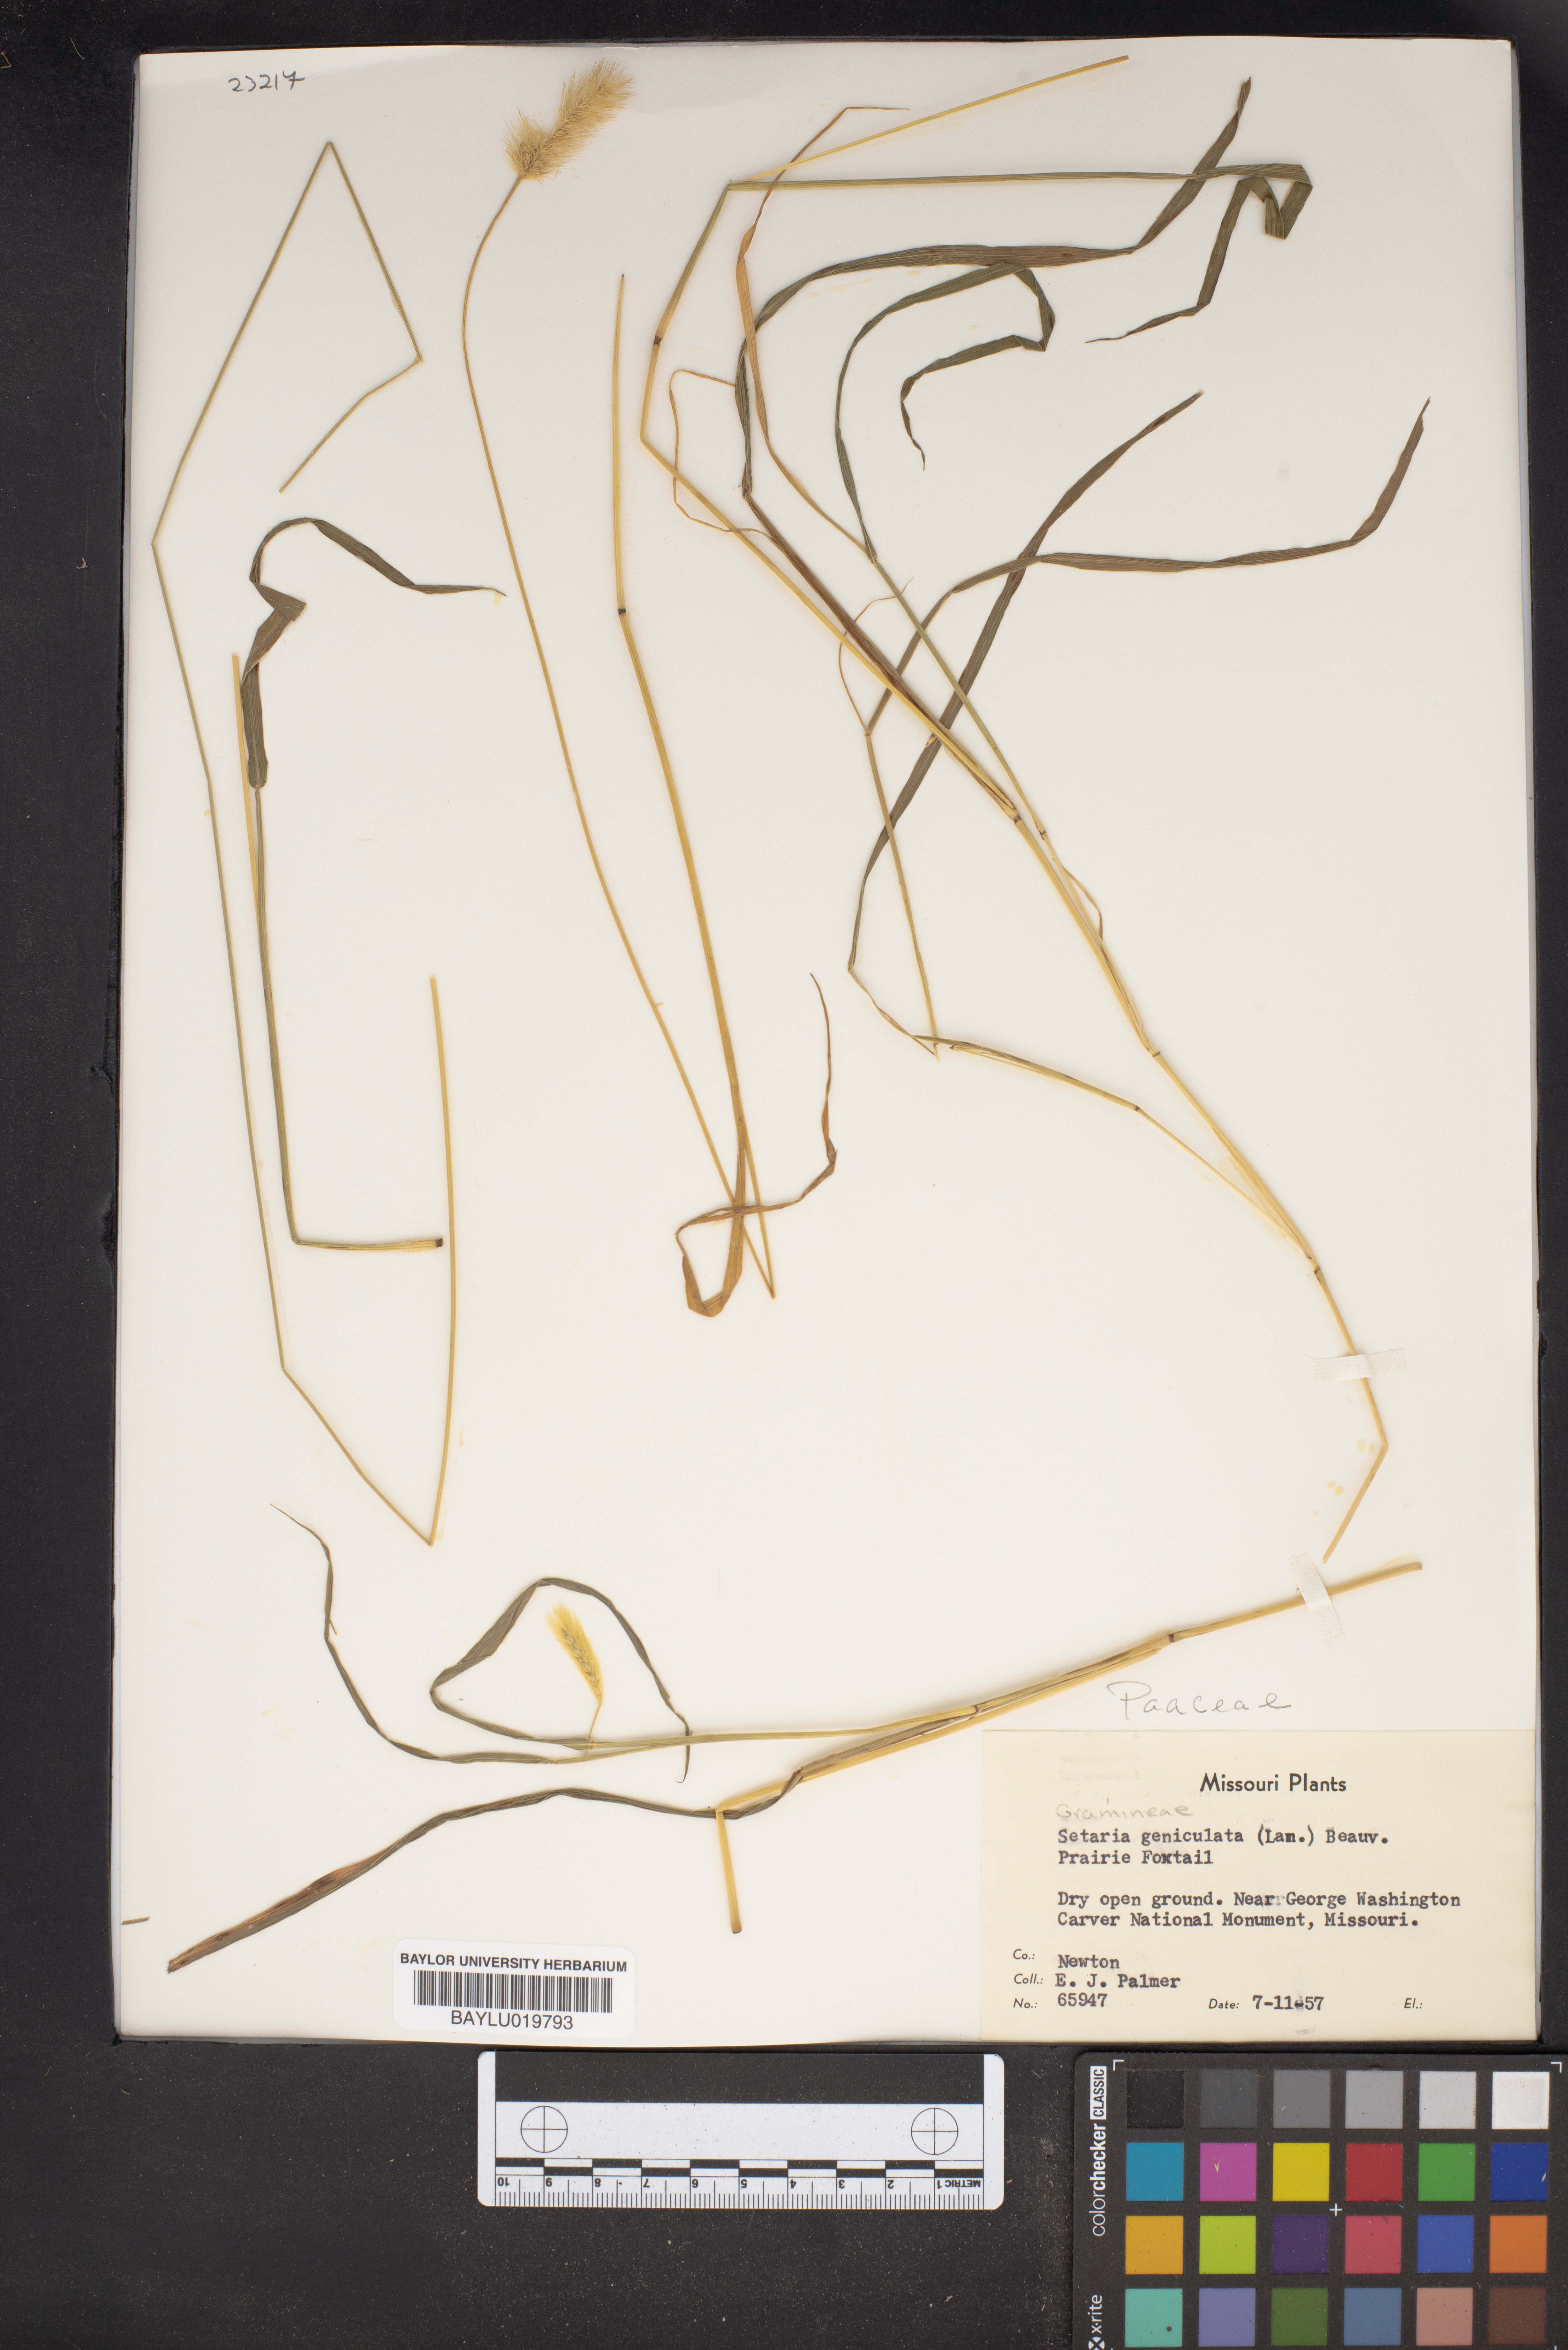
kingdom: Plantae
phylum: Tracheophyta
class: Liliopsida
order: Poales
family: Poaceae
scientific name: Poaceae
